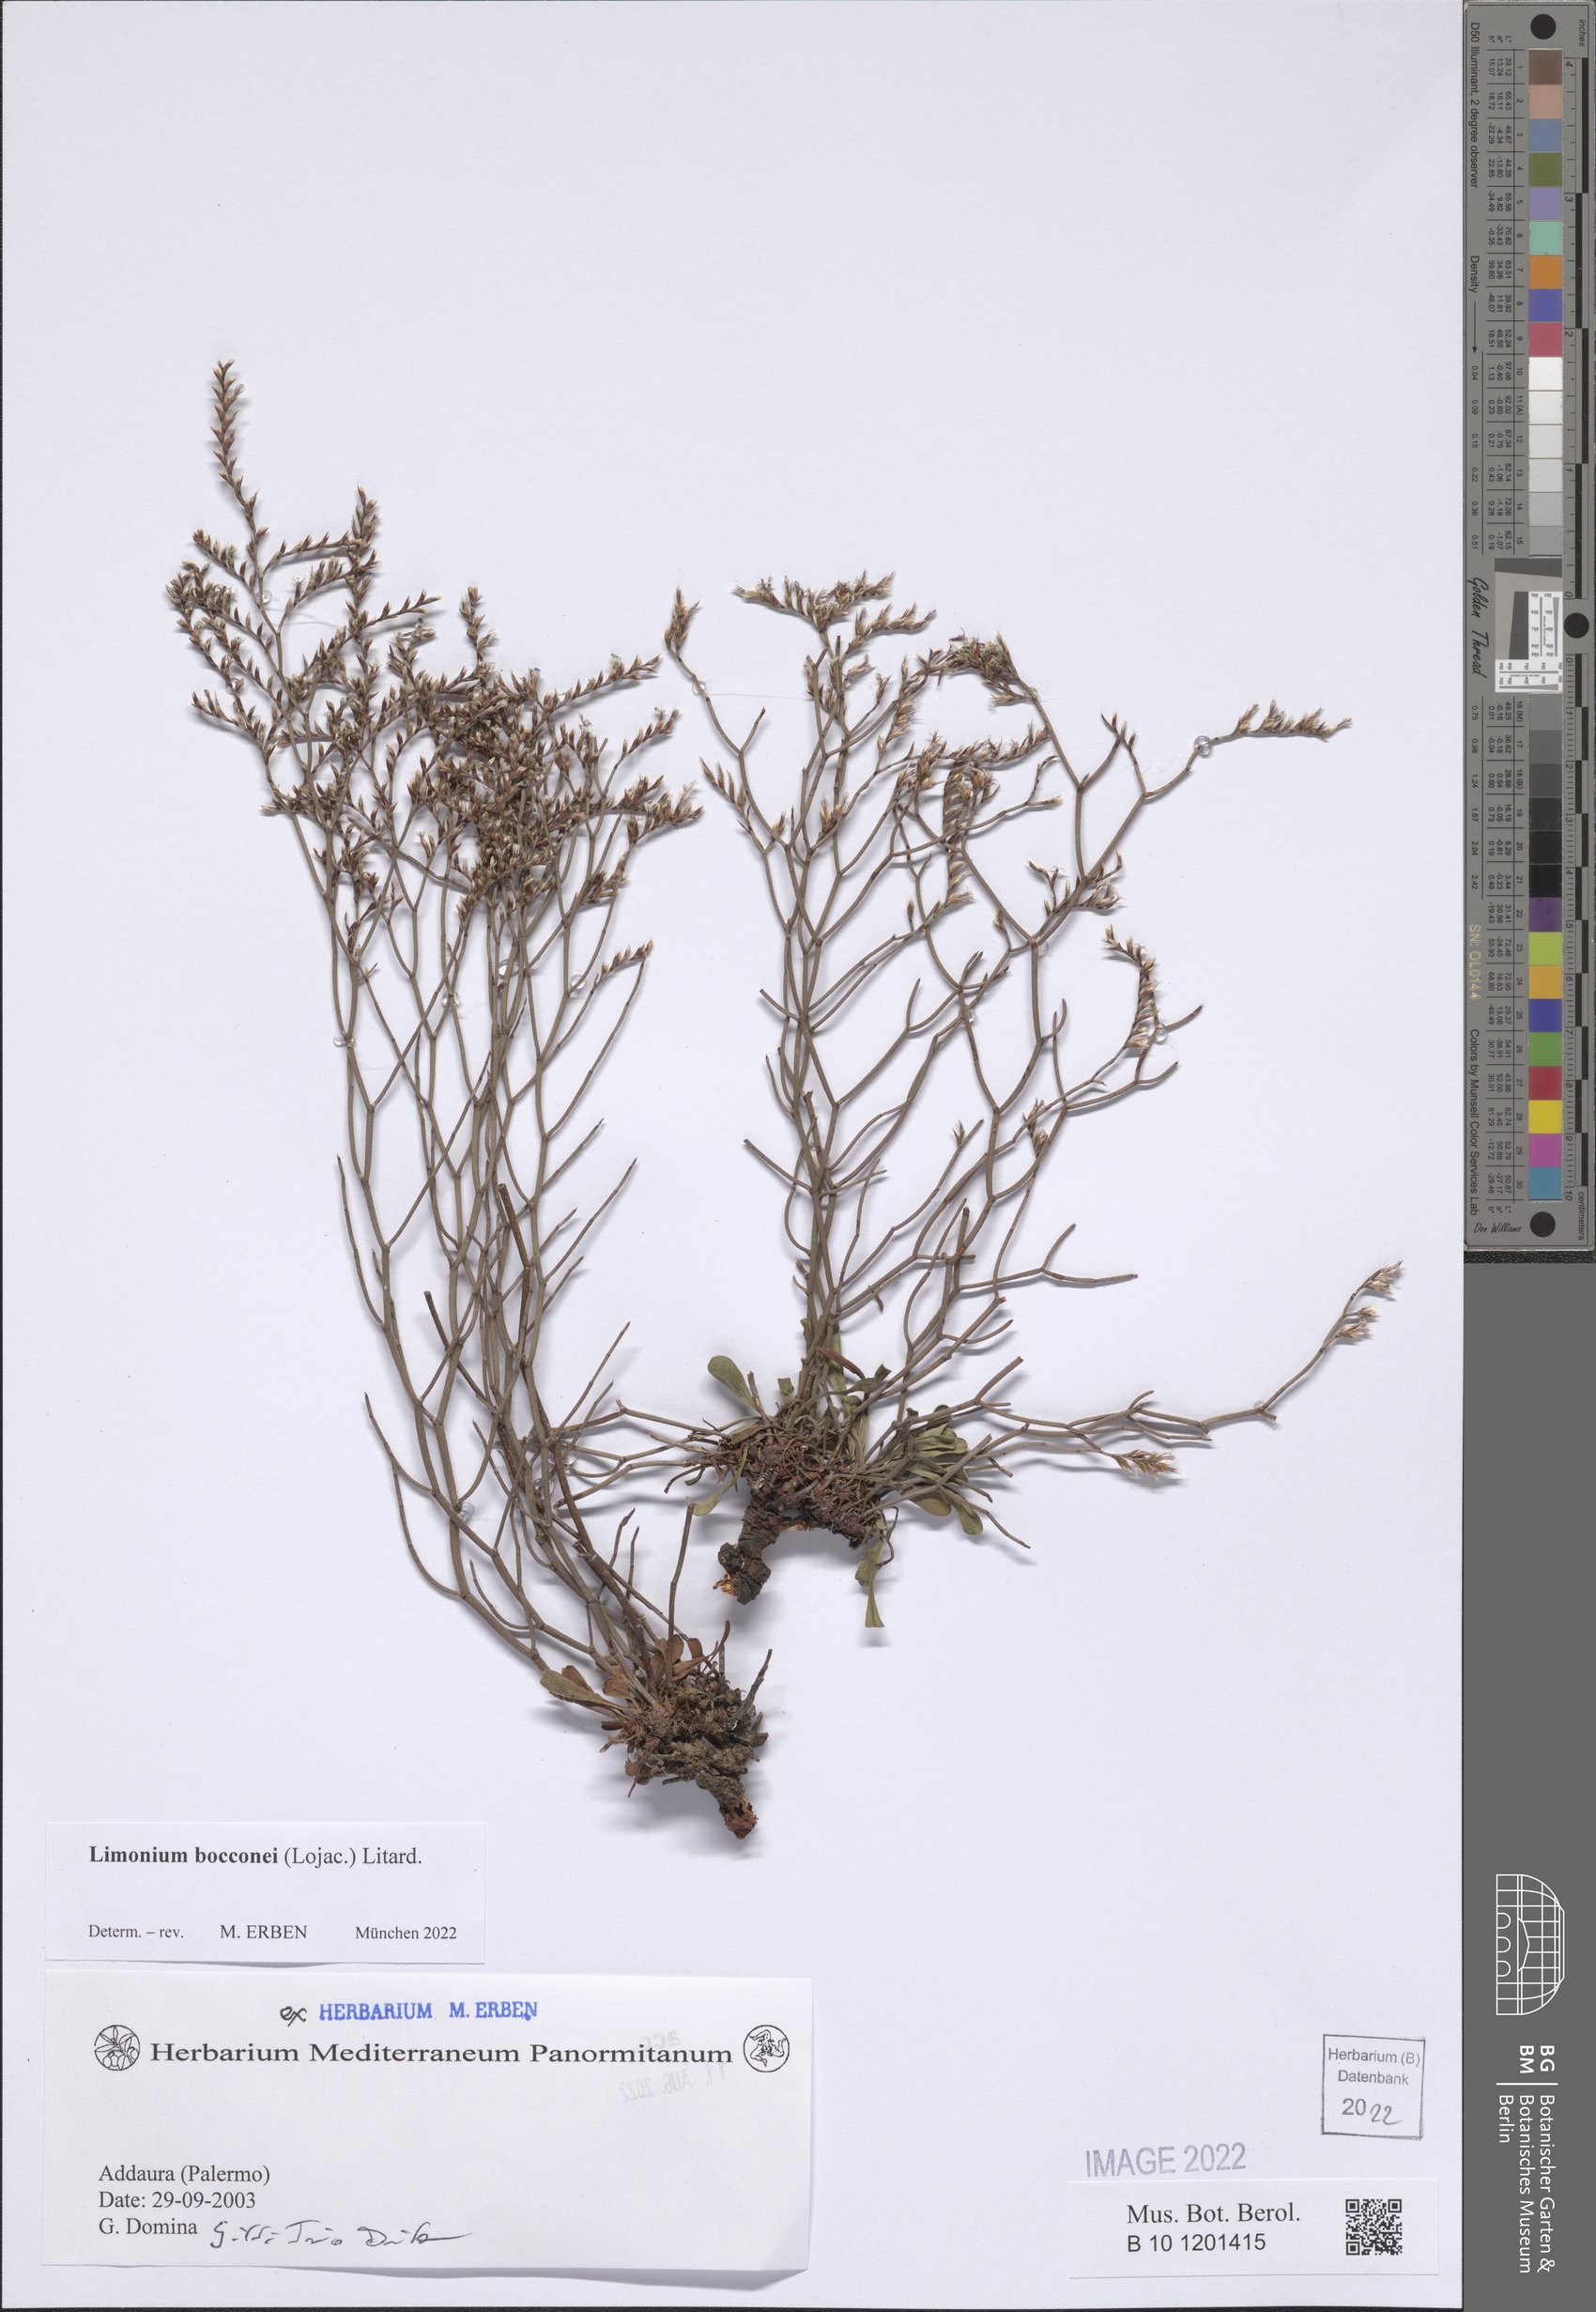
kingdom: Plantae
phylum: Tracheophyta
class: Magnoliopsida
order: Caryophyllales
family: Plumbaginaceae
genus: Limonium
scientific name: Limonium bocconei
